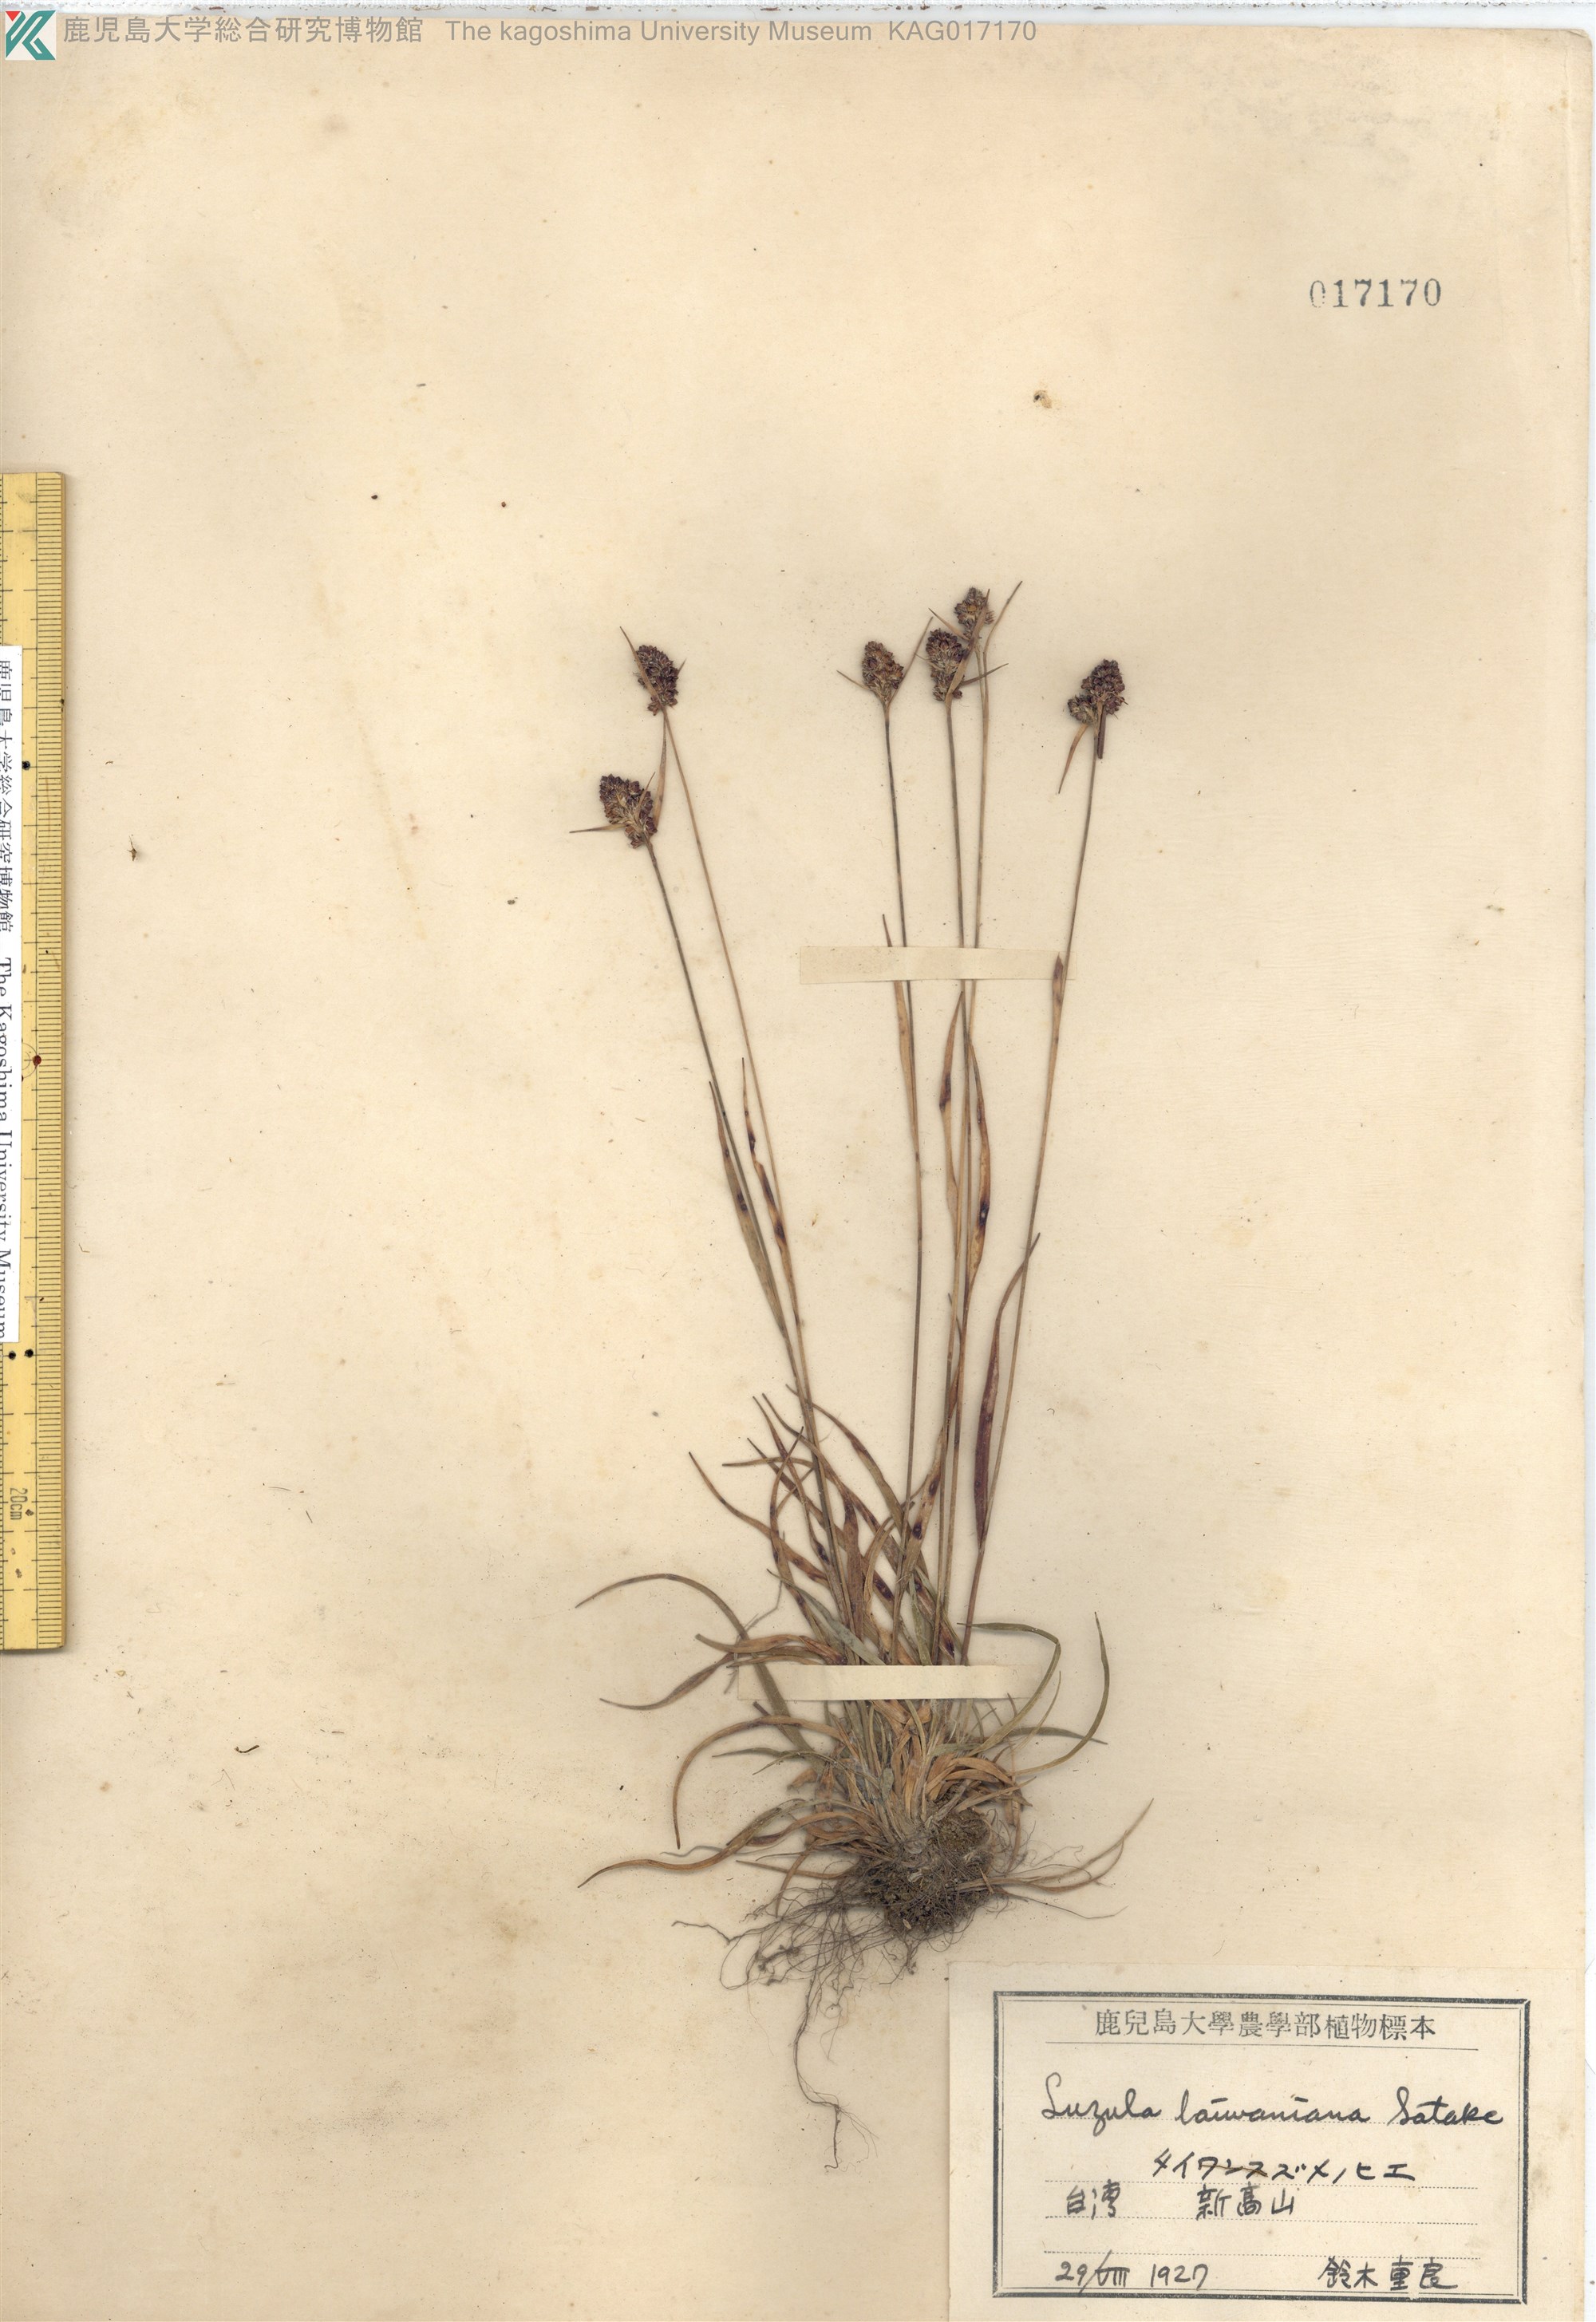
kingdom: Plantae
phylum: Tracheophyta
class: Liliopsida
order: Poales
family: Juncaceae
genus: Luzula
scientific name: Luzula capitata
